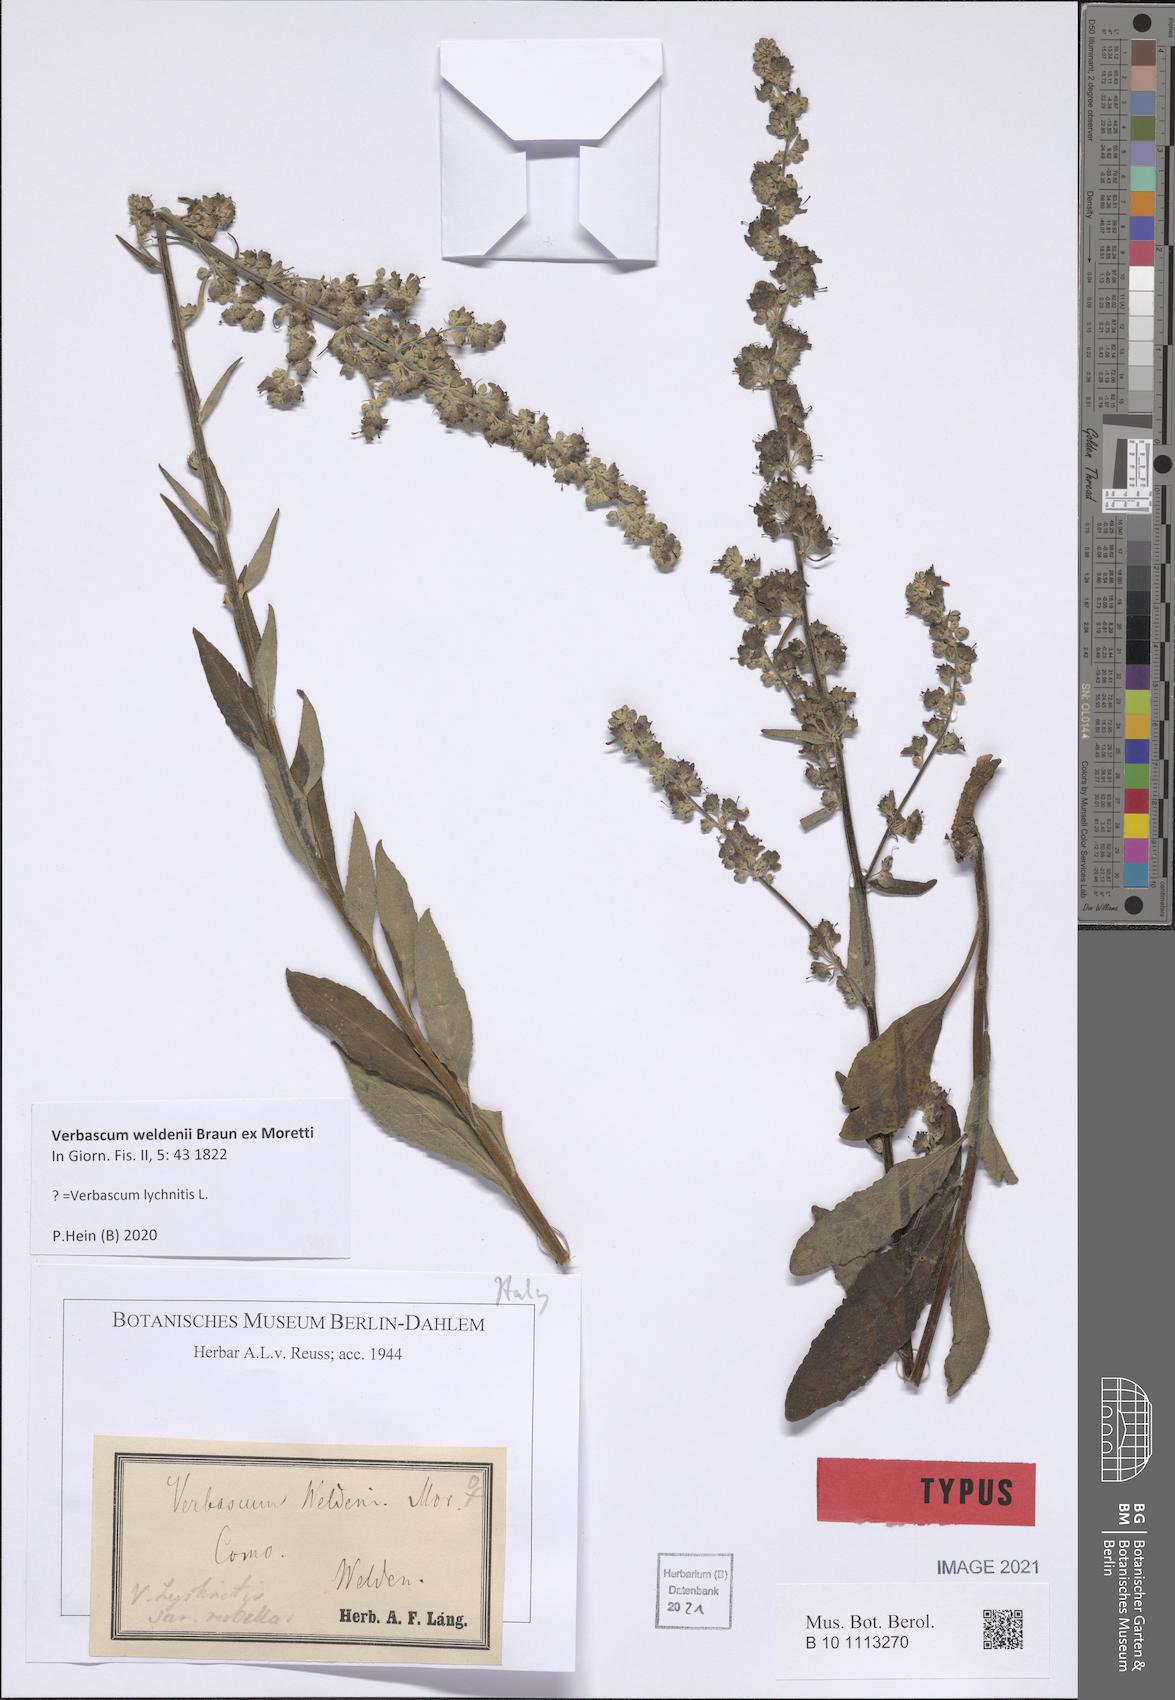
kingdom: Plantae
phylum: Tracheophyta
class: Magnoliopsida
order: Lamiales
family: Scrophulariaceae
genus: Verbascum
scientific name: Verbascum lychnitis
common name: White mullein
